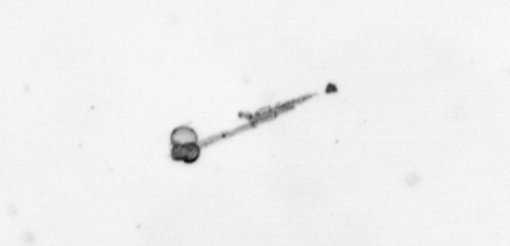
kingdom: Chromista
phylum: Foraminifera
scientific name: Foraminifera
